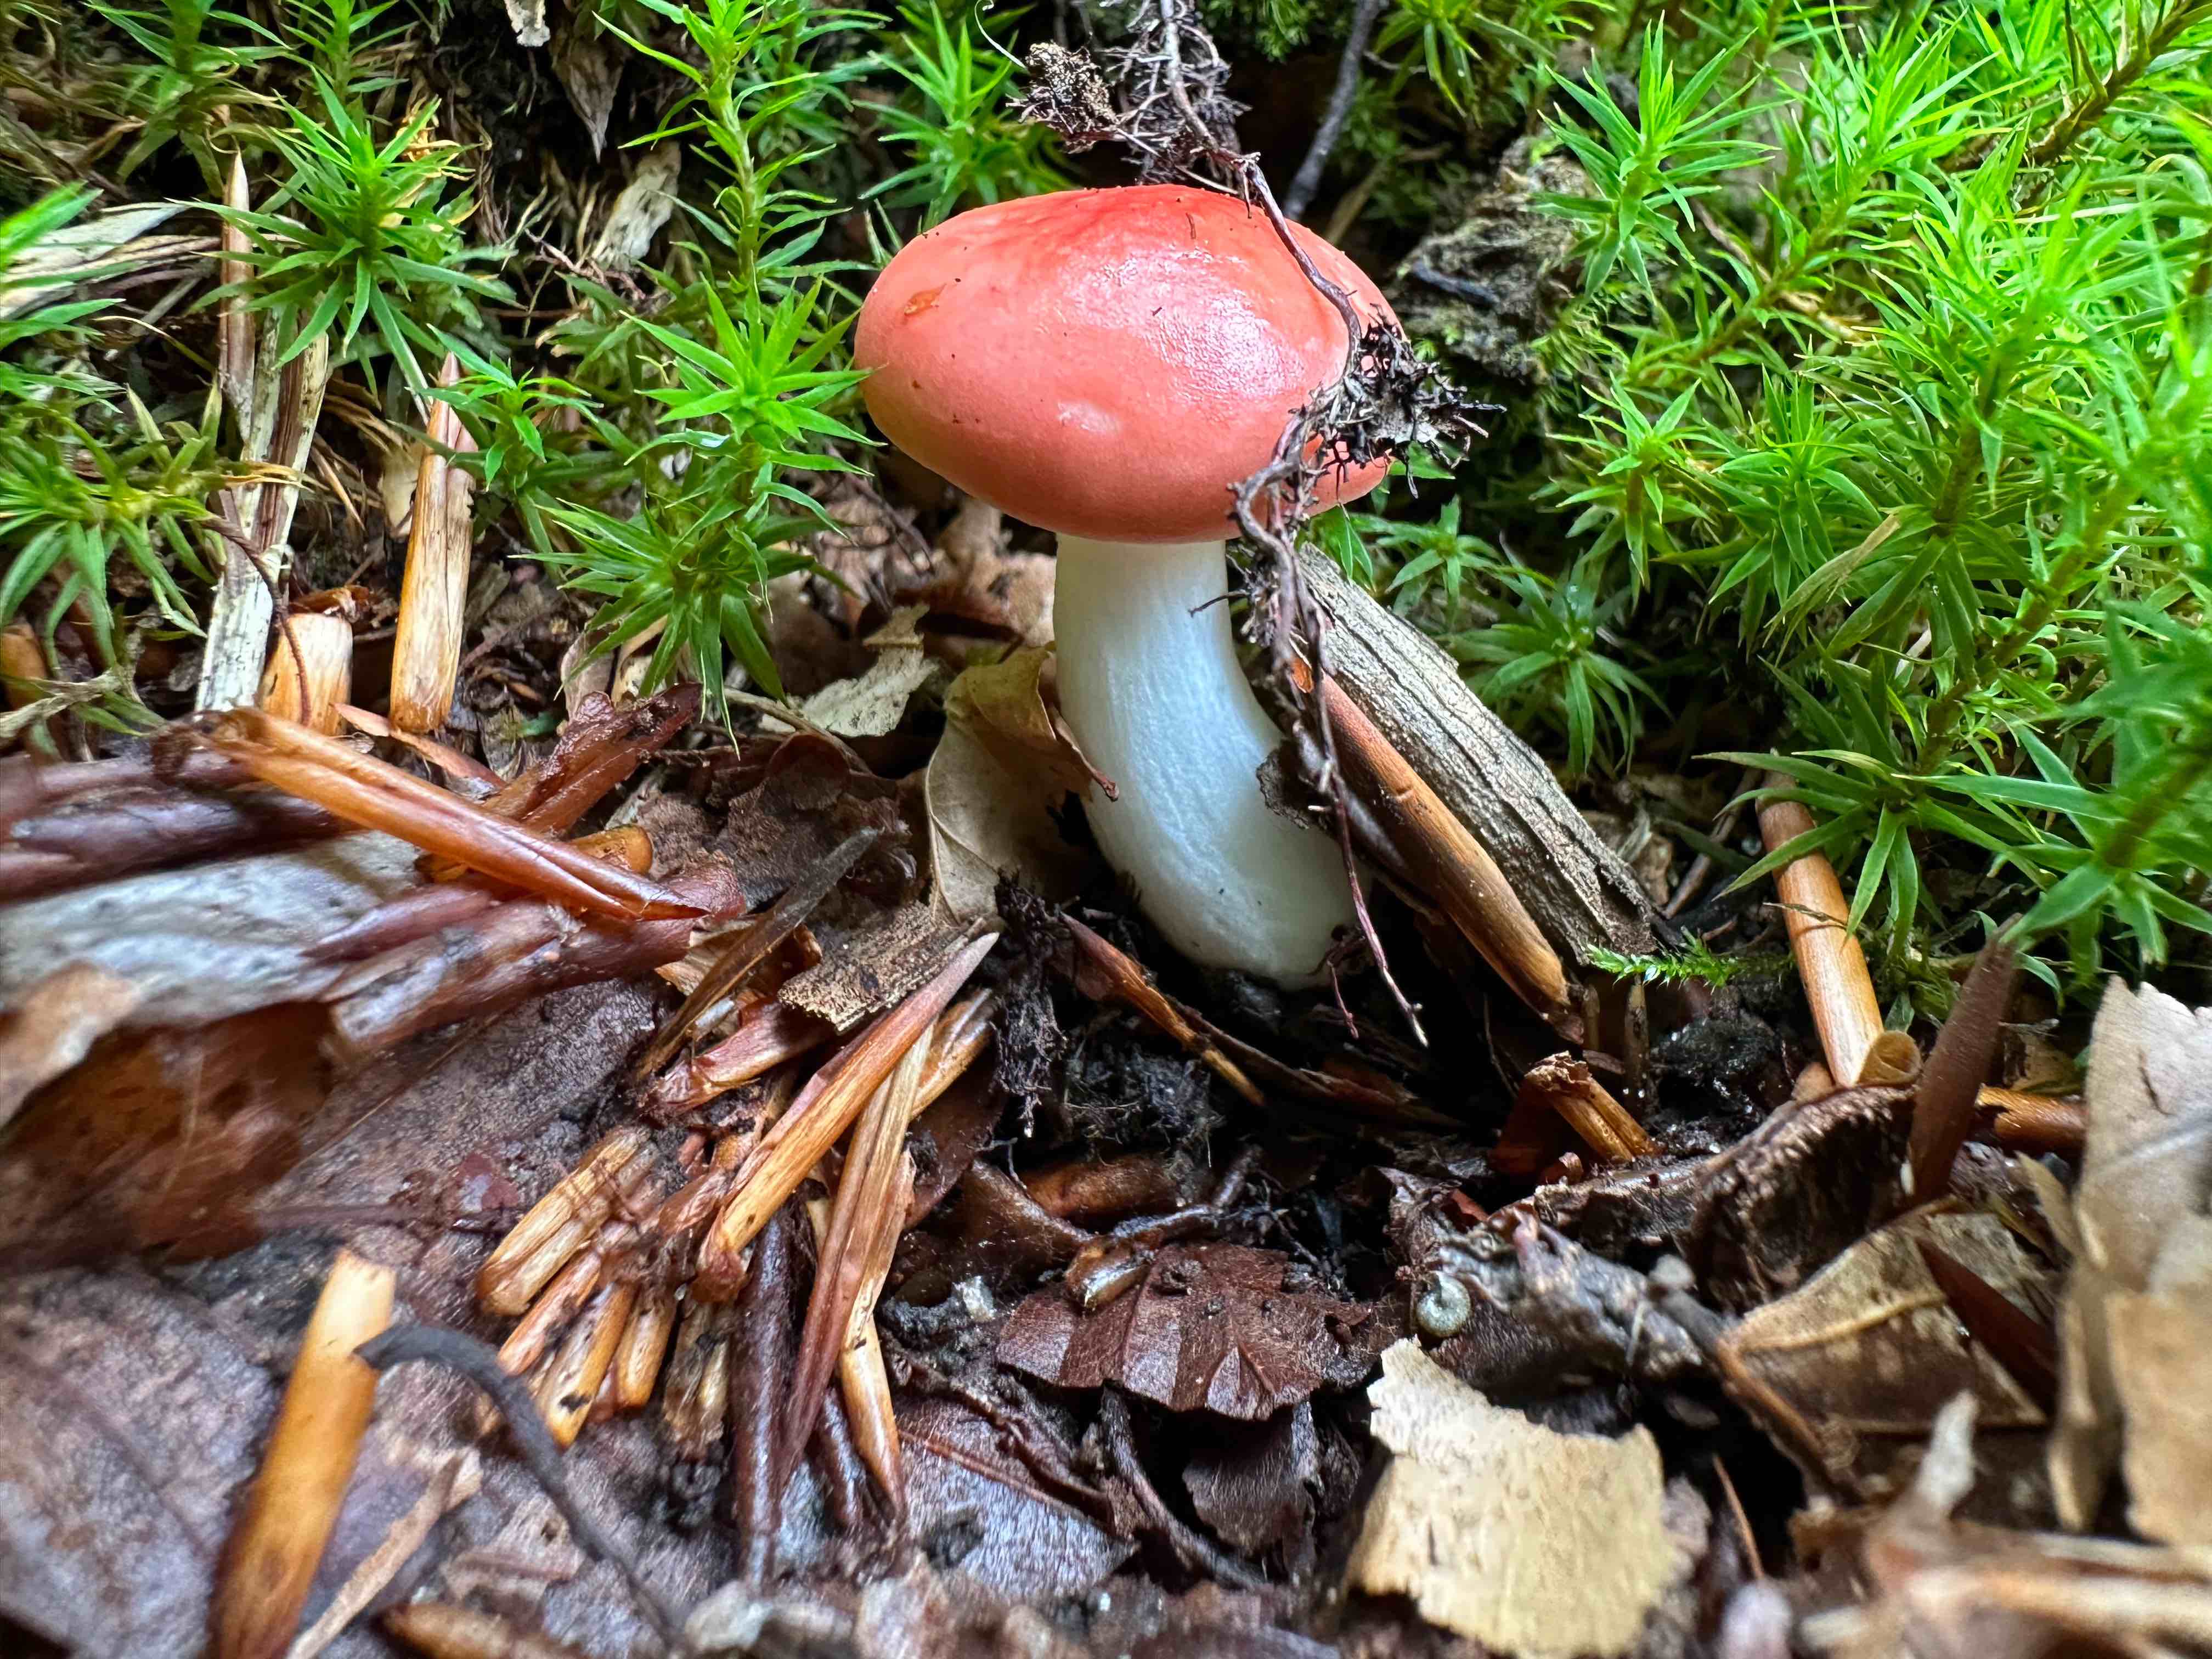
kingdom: Fungi
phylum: Basidiomycota
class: Agaricomycetes
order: Russulales
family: Russulaceae
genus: Russula
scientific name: Russula
